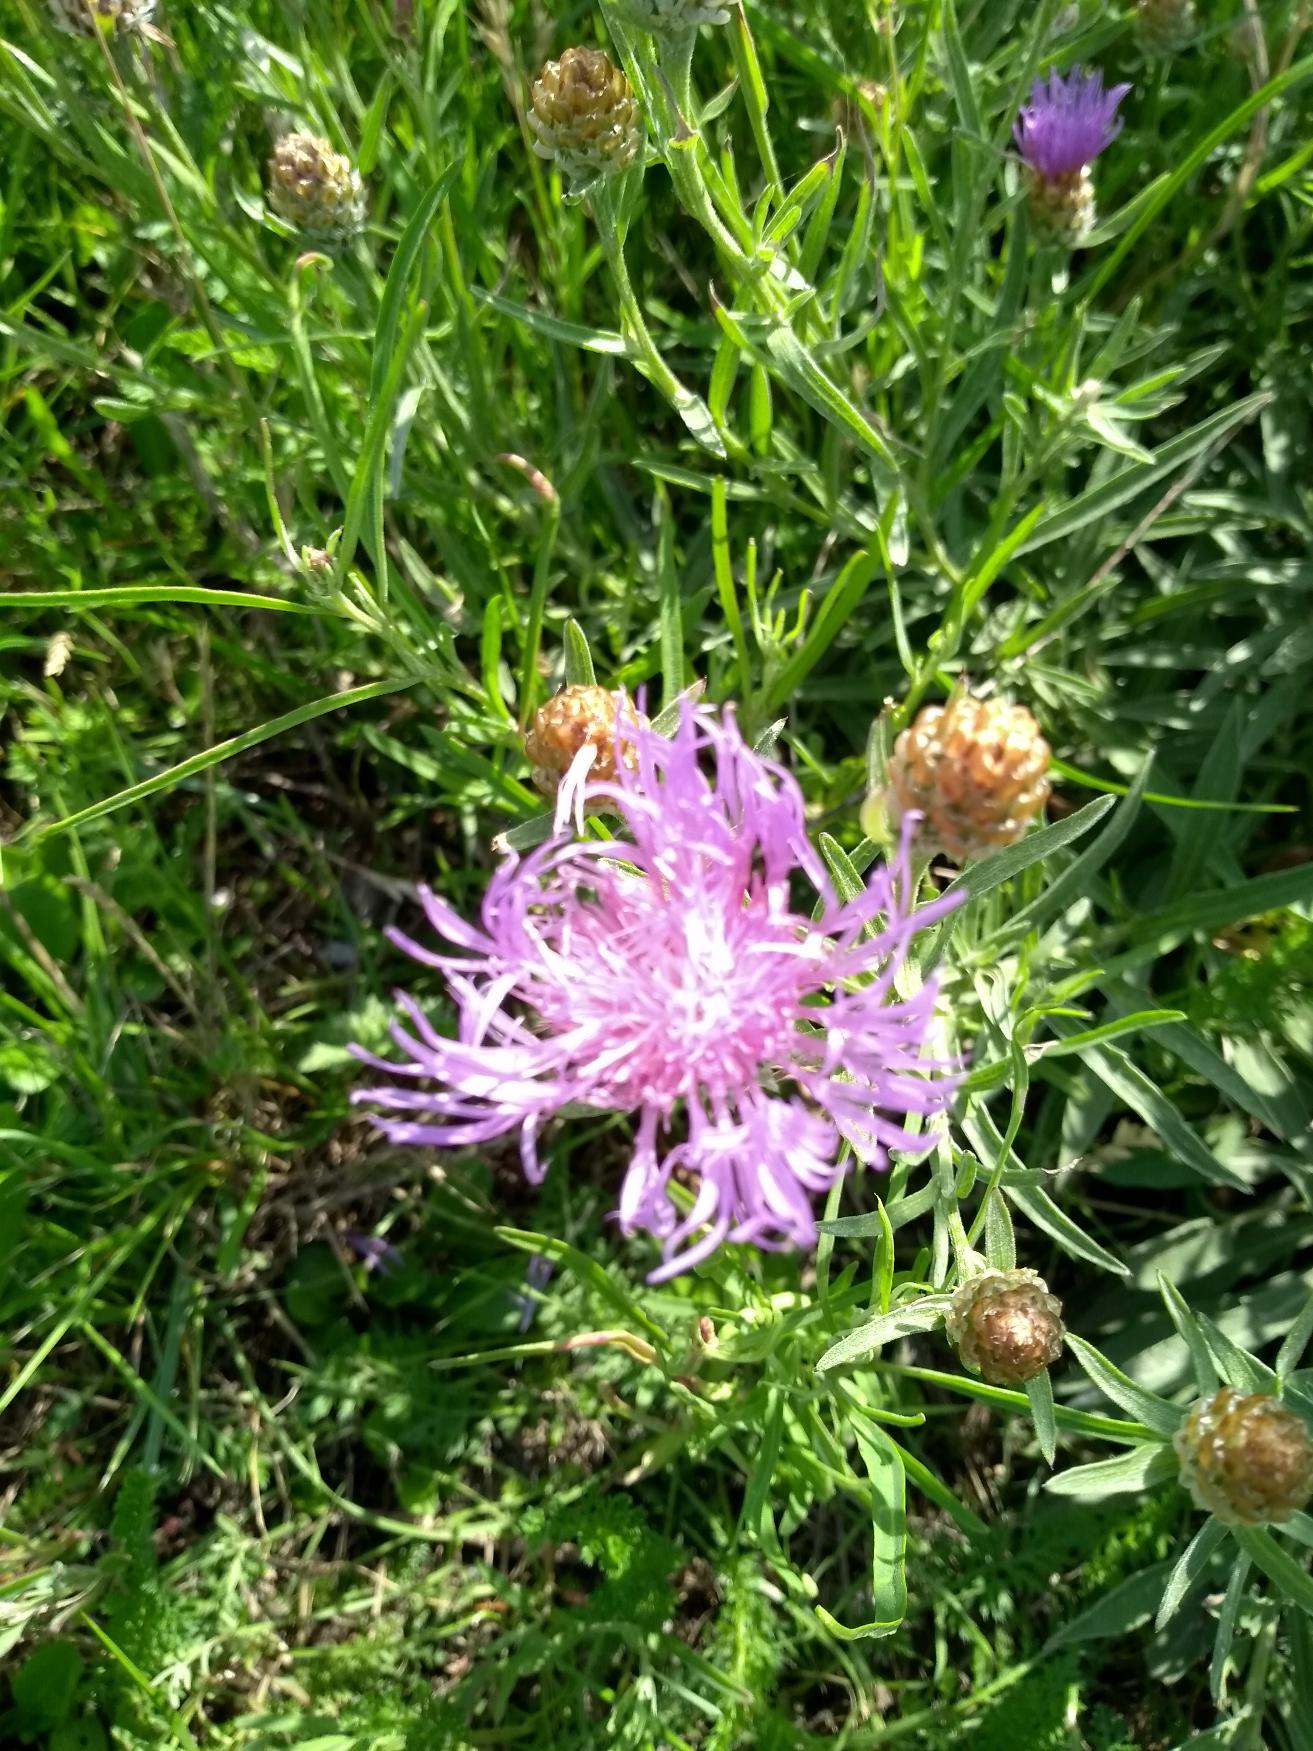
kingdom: Plantae
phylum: Tracheophyta
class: Magnoliopsida
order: Asterales
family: Asteraceae
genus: Centaurea
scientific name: Centaurea jacea
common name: Almindelig knopurt
